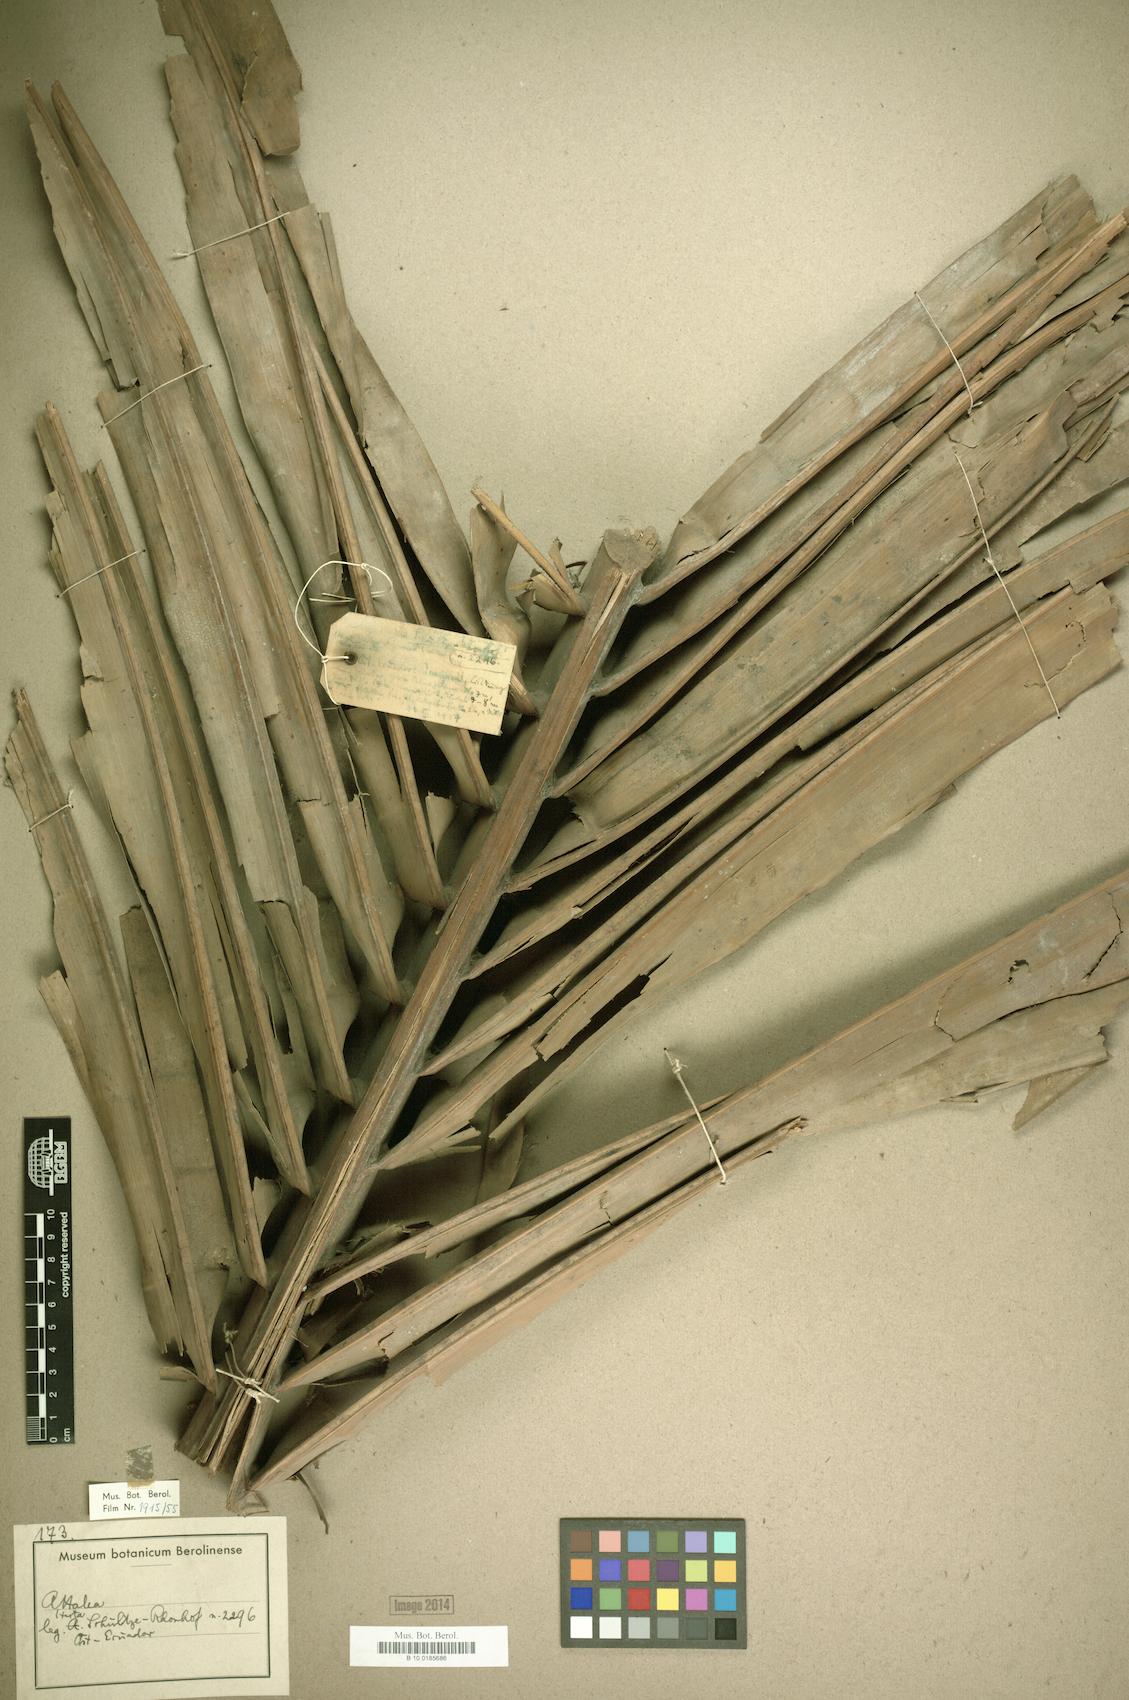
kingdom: Plantae
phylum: Tracheophyta
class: Liliopsida
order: Arecales
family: Arecaceae
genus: Attalea
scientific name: Attalea
